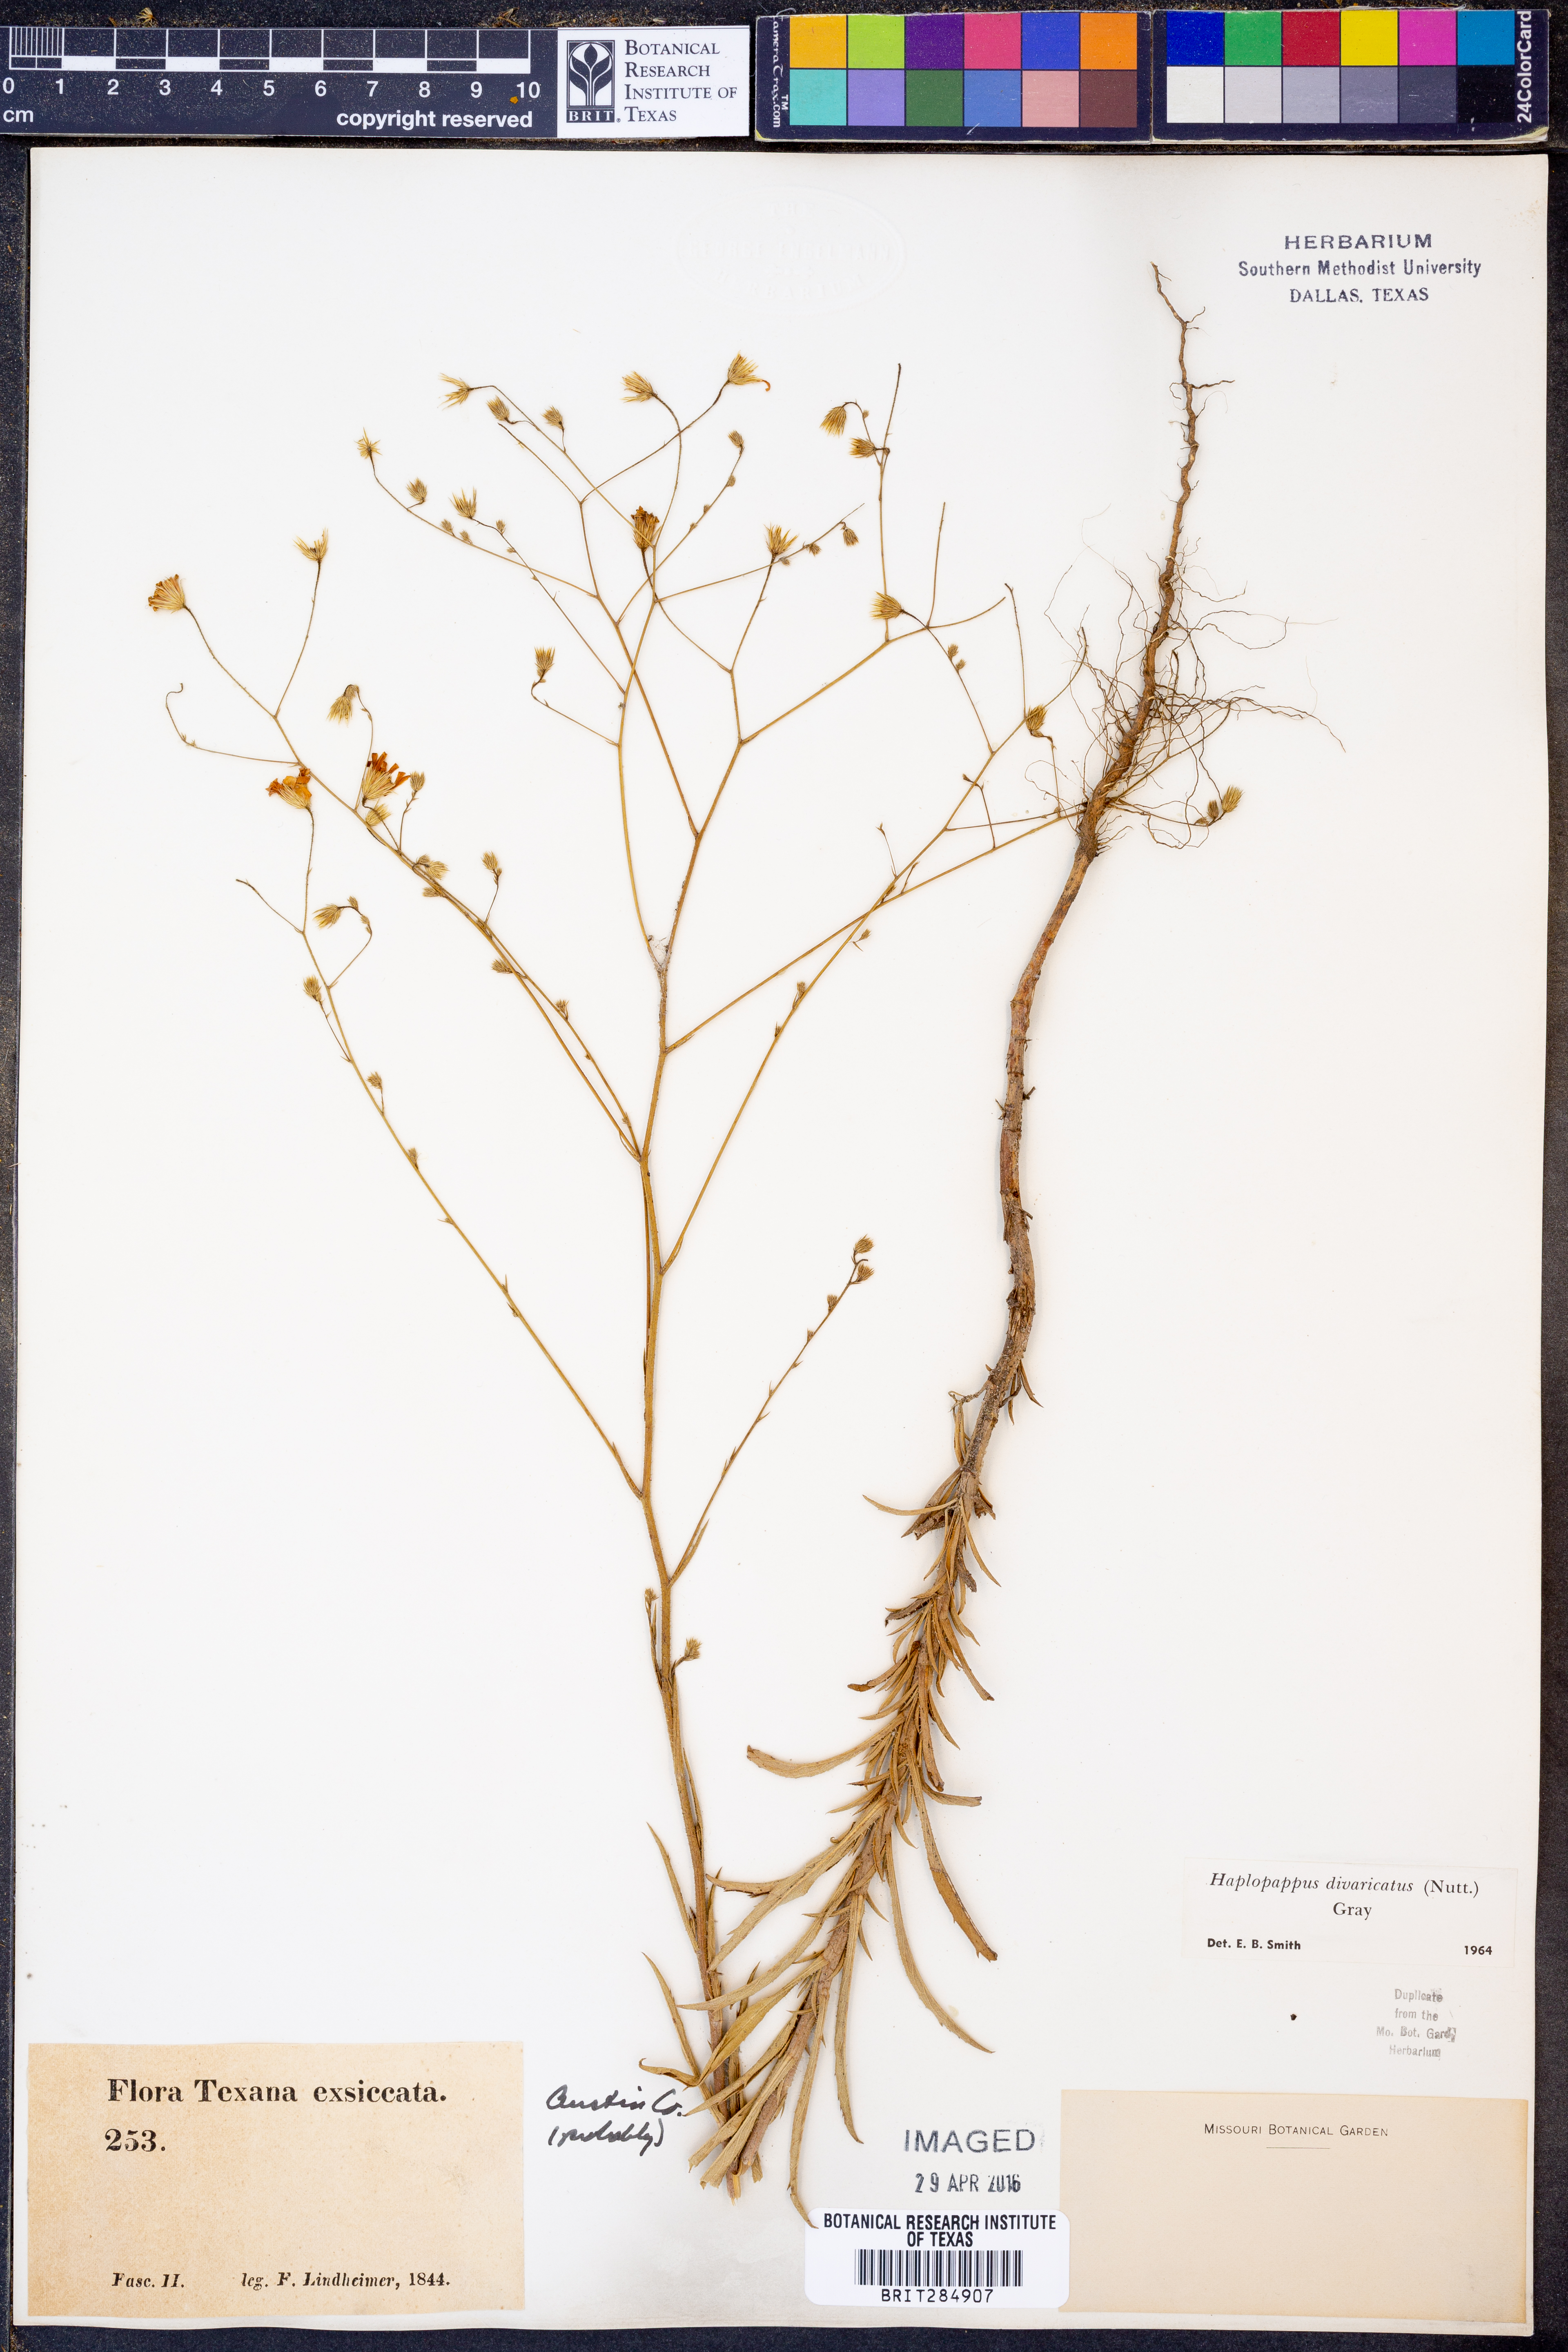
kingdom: Plantae
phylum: Tracheophyta
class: Magnoliopsida
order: Asterales
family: Asteraceae
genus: Croptilon
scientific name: Croptilon divaricatum
